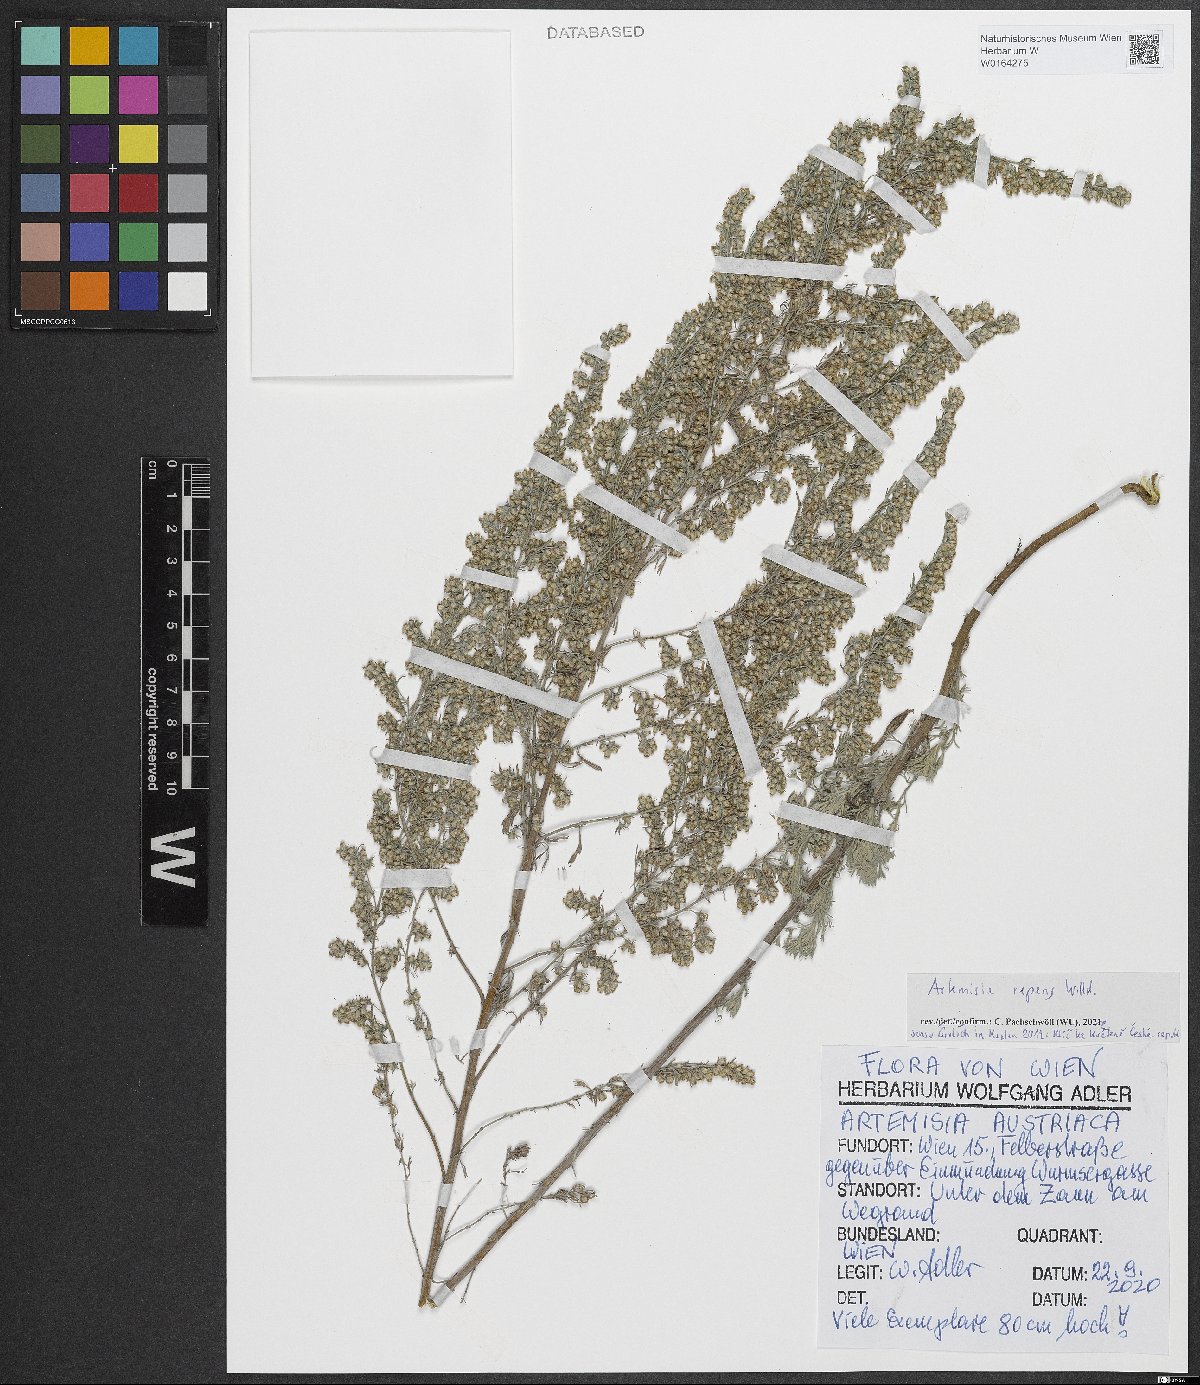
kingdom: Plantae
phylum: Tracheophyta
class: Magnoliopsida
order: Asterales
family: Asteraceae
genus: Artemisia
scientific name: Artemisia repens
